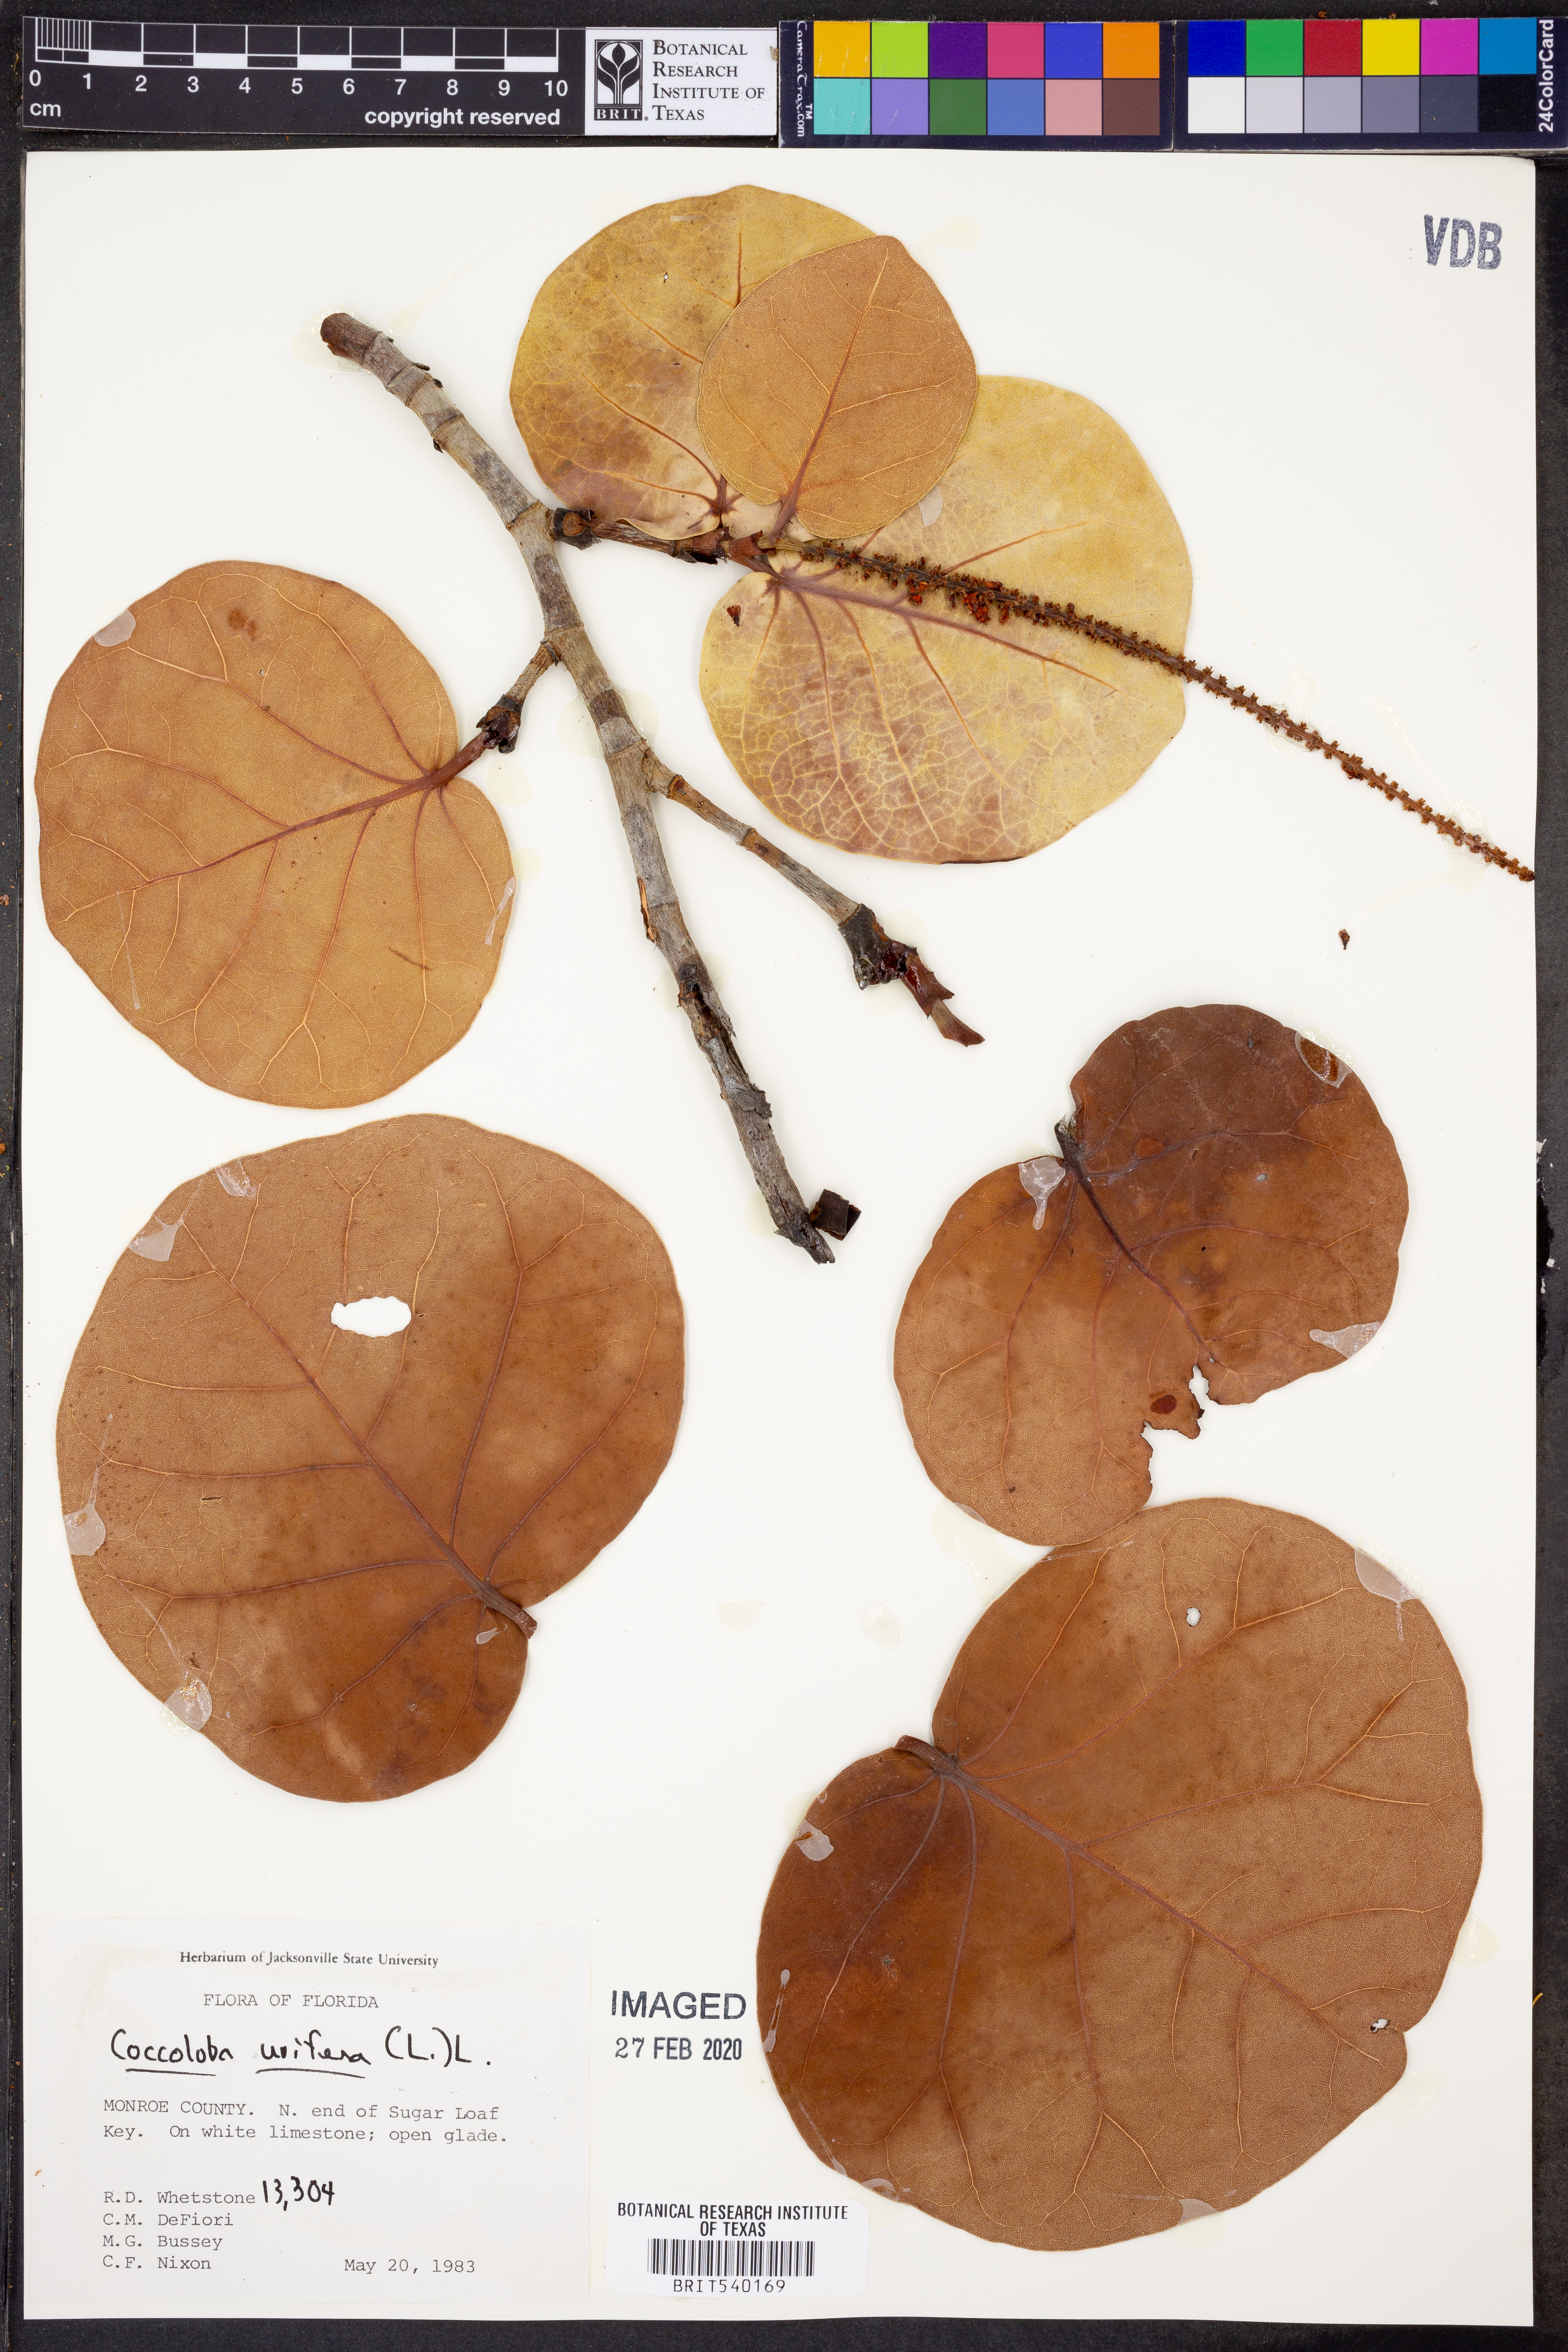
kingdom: Plantae
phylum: Tracheophyta
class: Magnoliopsida
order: Caryophyllales
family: Polygonaceae
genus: Coccoloba
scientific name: Coccoloba uvifera
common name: Seagrape
